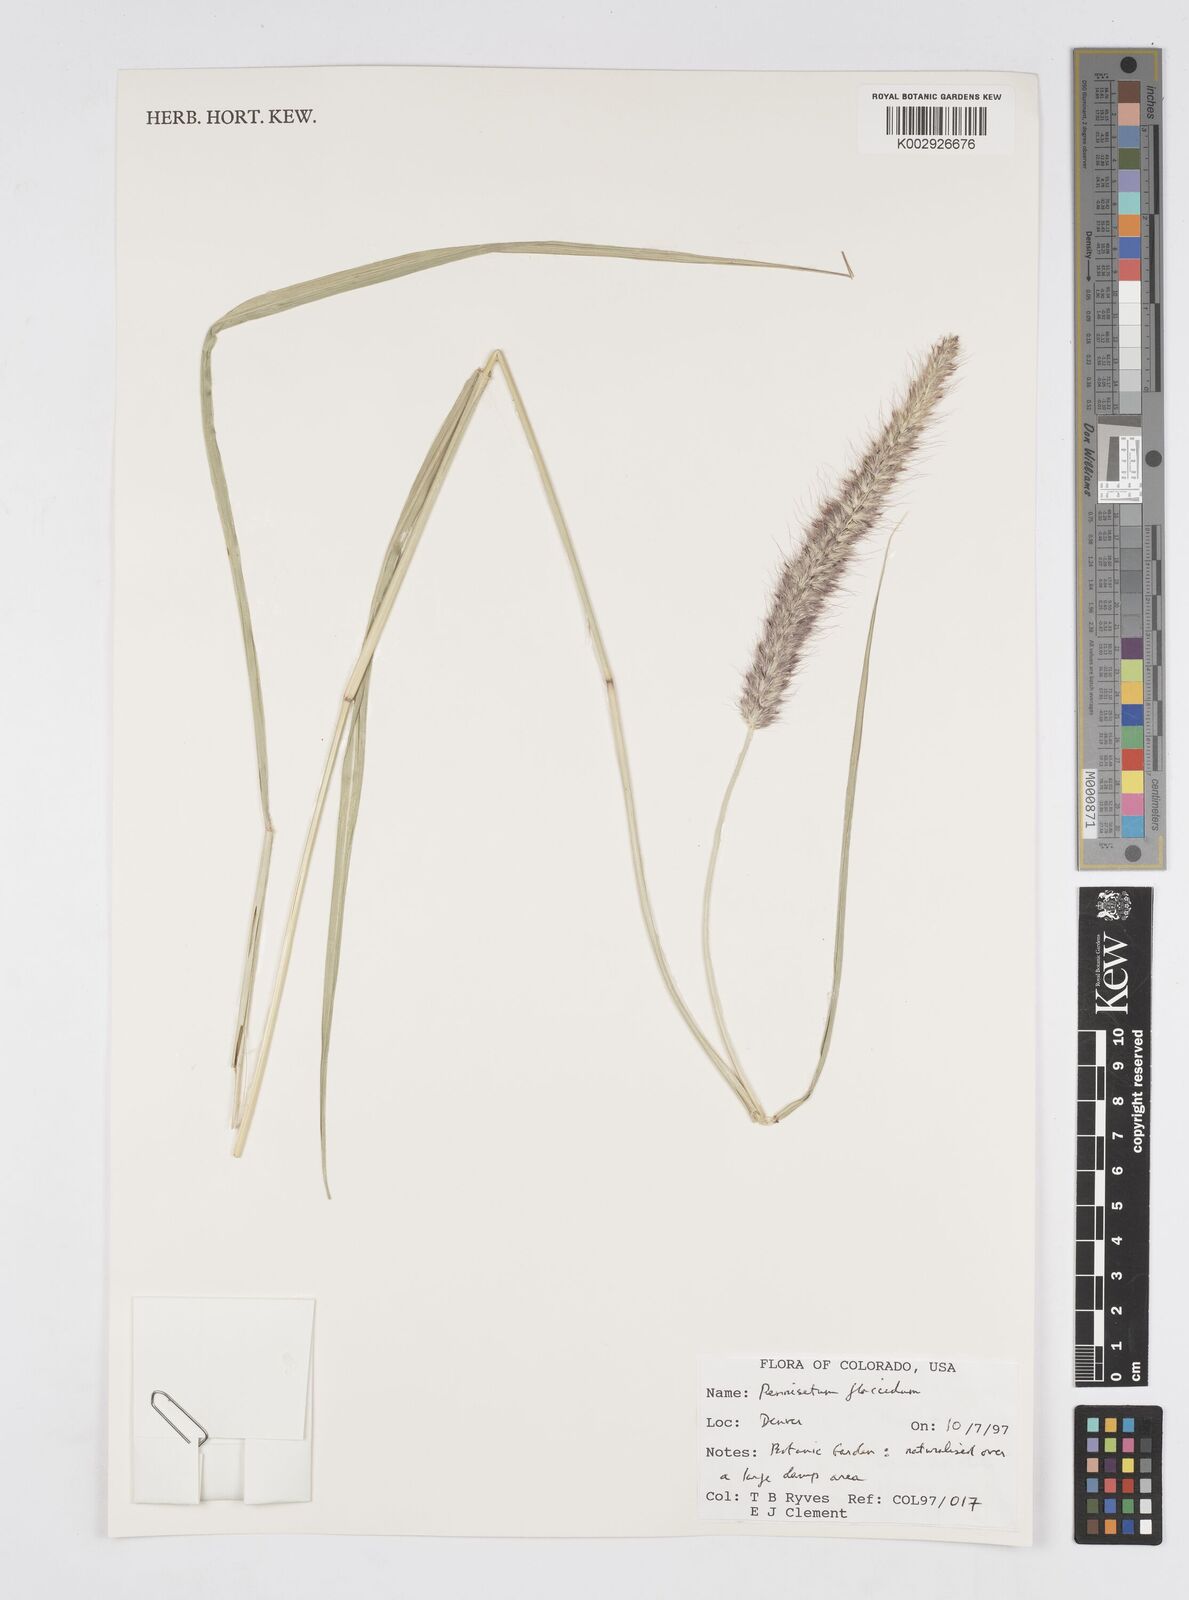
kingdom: Plantae
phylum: Tracheophyta
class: Liliopsida
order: Poales
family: Poaceae
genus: Cenchrus
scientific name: Cenchrus flaccidus
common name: Flaccid grass
